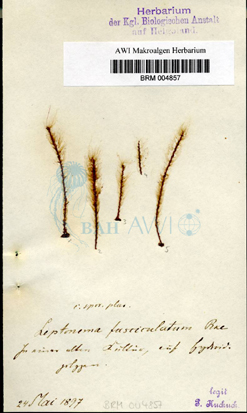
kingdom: Chromista
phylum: Ochrophyta
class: Phaeophyceae
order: Ectocarpales
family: Chordariaceae
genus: Leptonematella
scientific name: Leptonematella fasciculata
